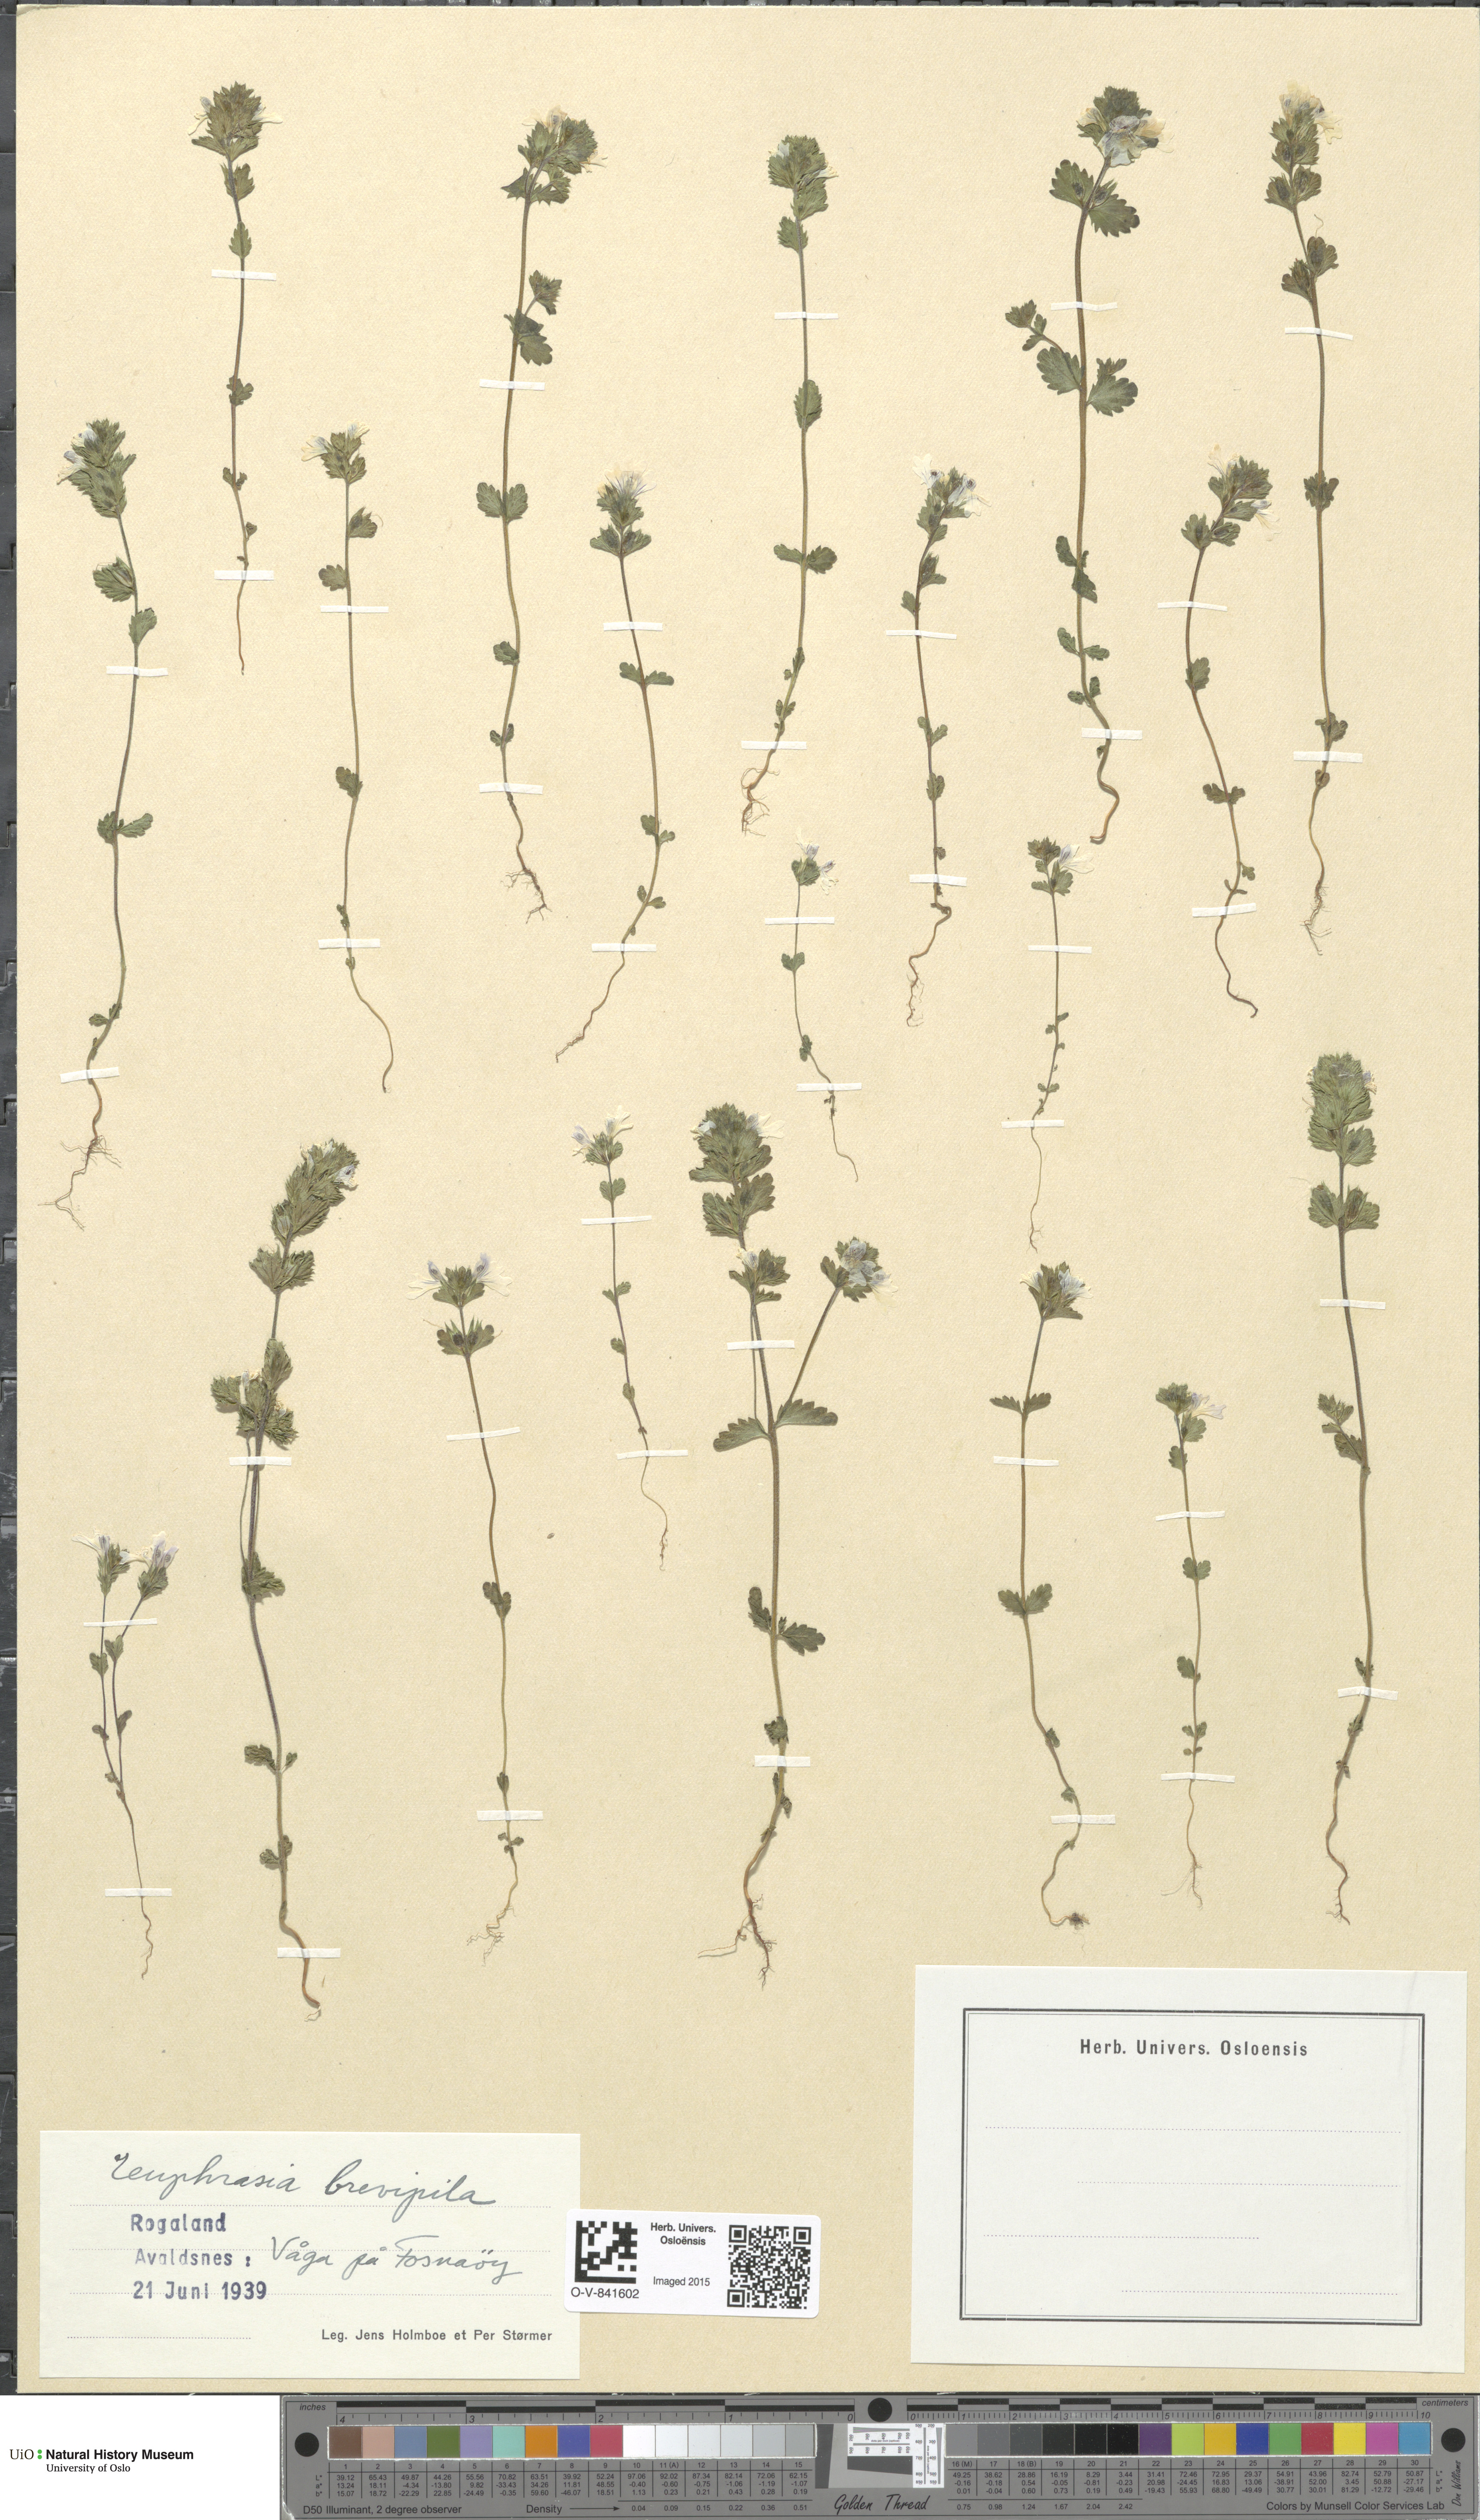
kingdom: Plantae
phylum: Tracheophyta
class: Magnoliopsida
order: Lamiales
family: Orobanchaceae
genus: Euphrasia
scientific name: Euphrasia vernalis
